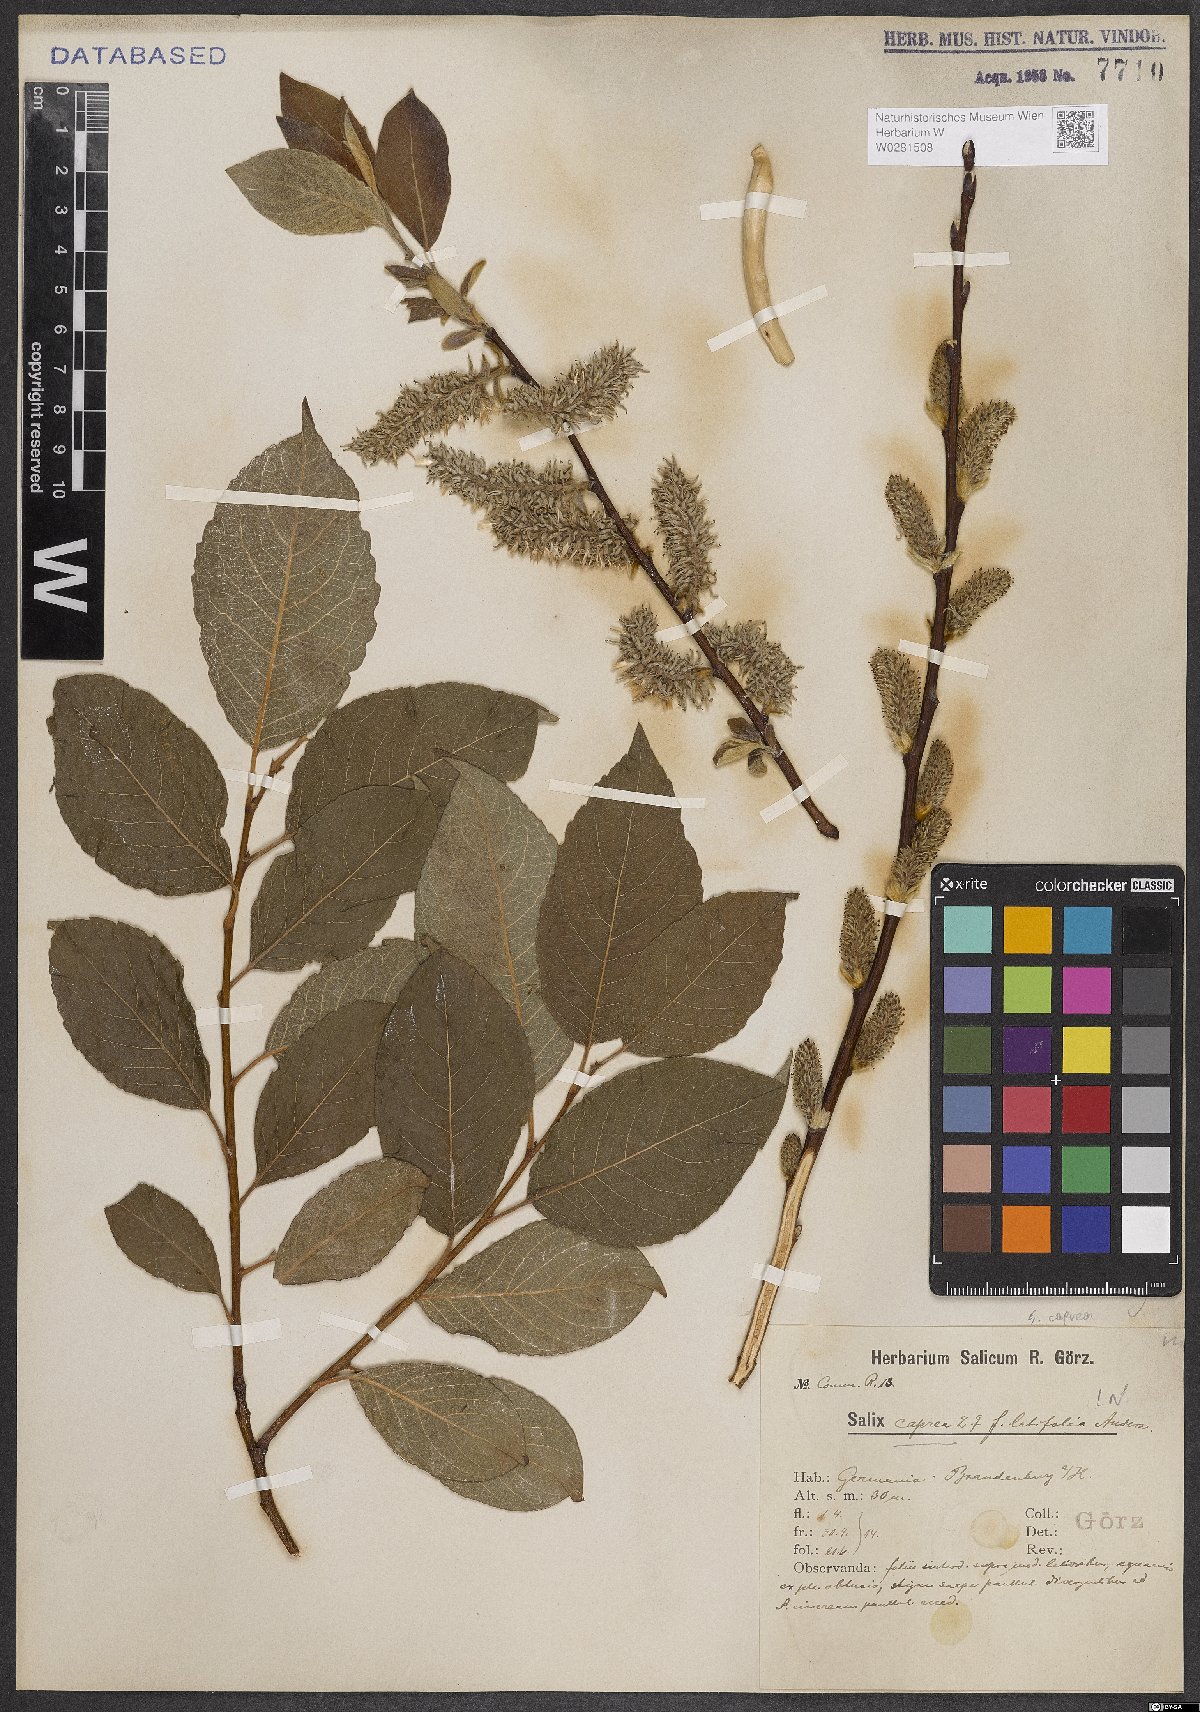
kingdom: Plantae
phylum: Tracheophyta
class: Magnoliopsida
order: Malpighiales
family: Salicaceae
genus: Salix
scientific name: Salix caprea
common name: Goat willow
